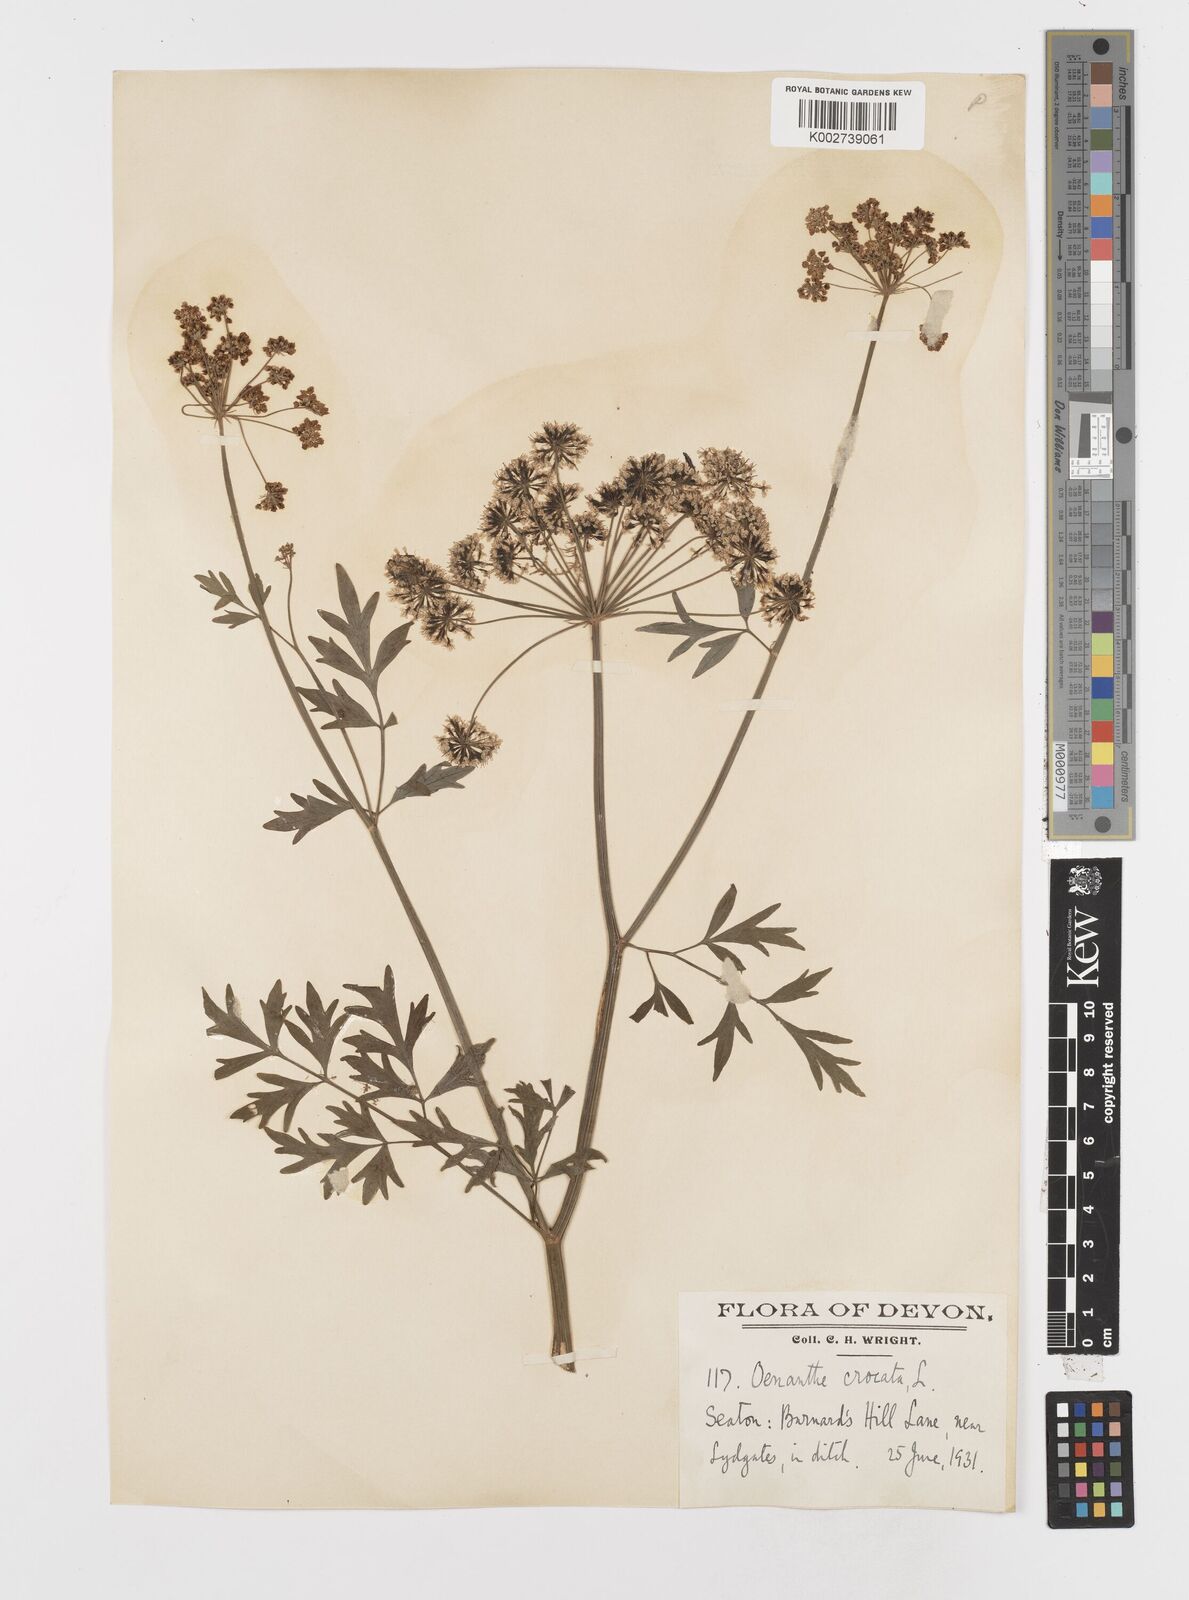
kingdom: Plantae
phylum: Tracheophyta
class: Magnoliopsida
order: Apiales
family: Apiaceae
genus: Oenanthe
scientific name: Oenanthe crocata
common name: Hemlock water-dropwort
